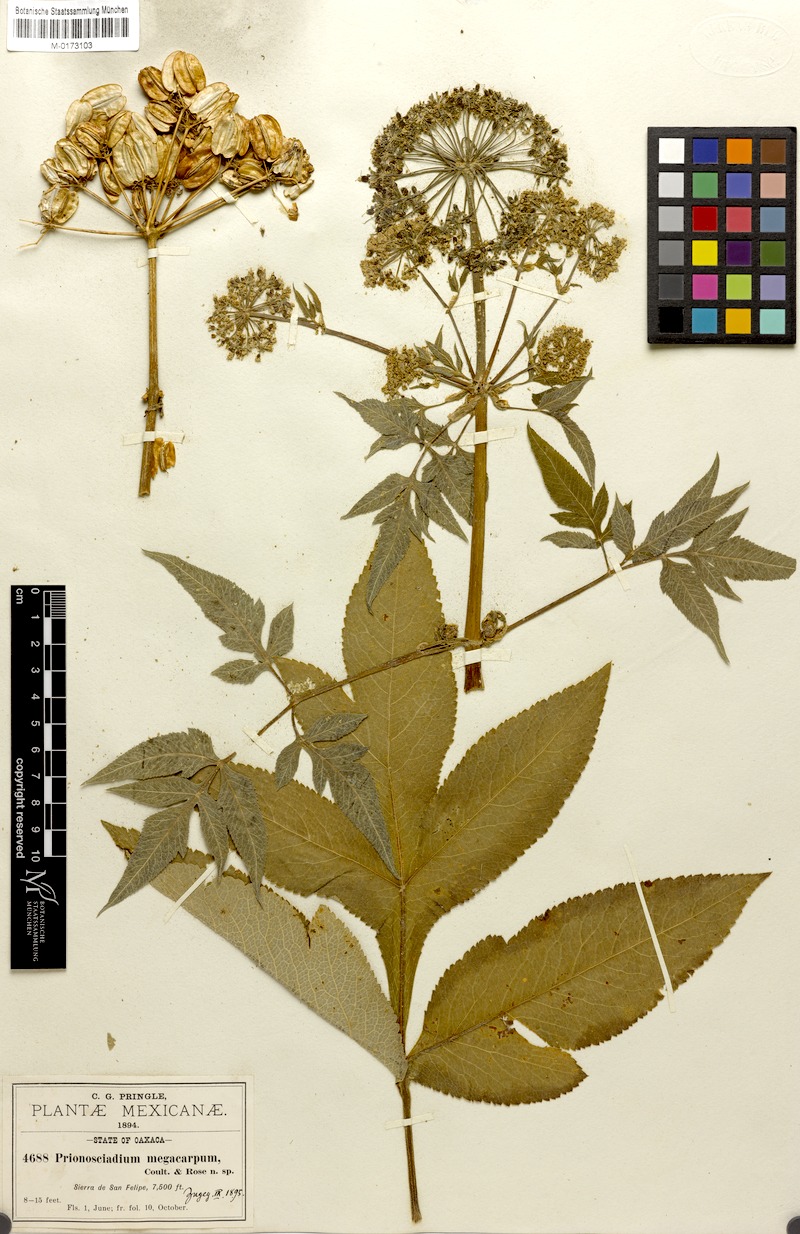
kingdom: Plantae
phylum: Tracheophyta
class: Magnoliopsida
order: Apiales
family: Apiaceae
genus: Prionosciadium
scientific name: Prionosciadium megacarpum
